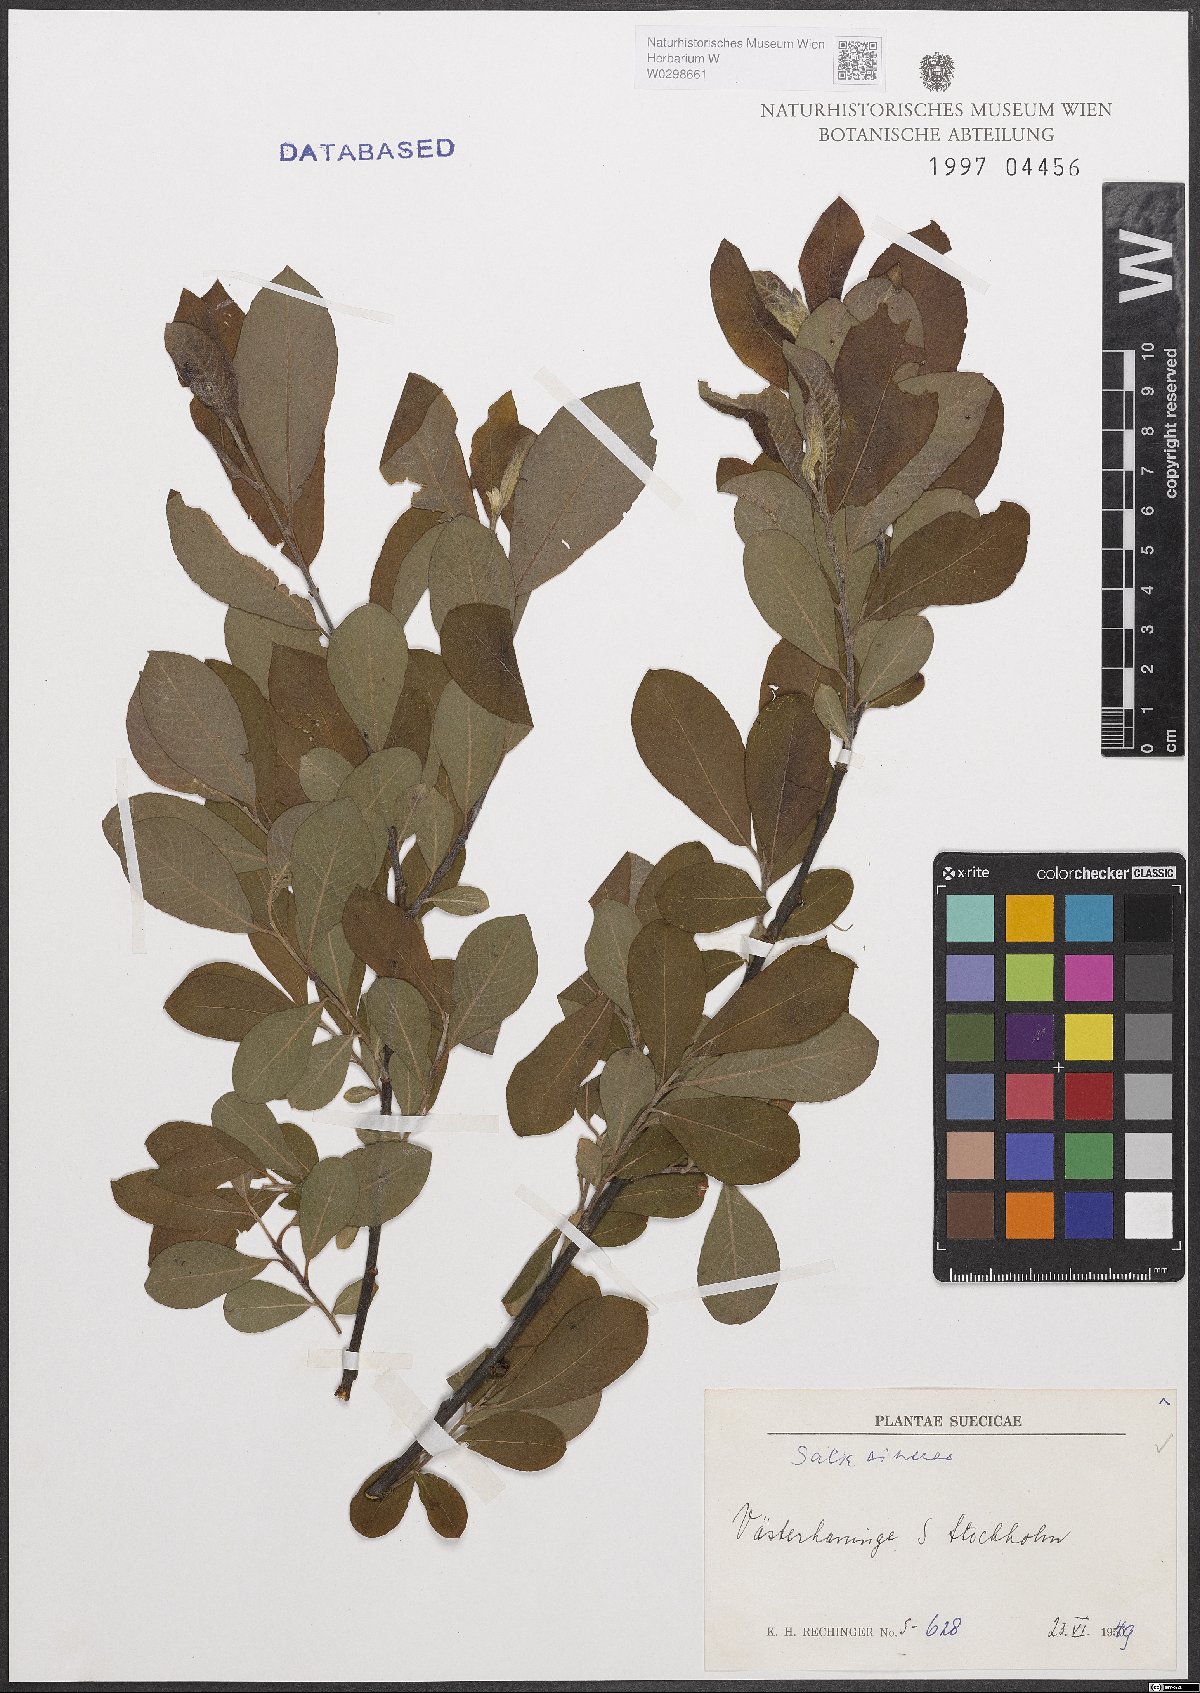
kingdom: Plantae
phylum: Tracheophyta
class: Magnoliopsida
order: Malpighiales
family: Salicaceae
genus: Salix
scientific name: Salix cinerea
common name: Common sallow
